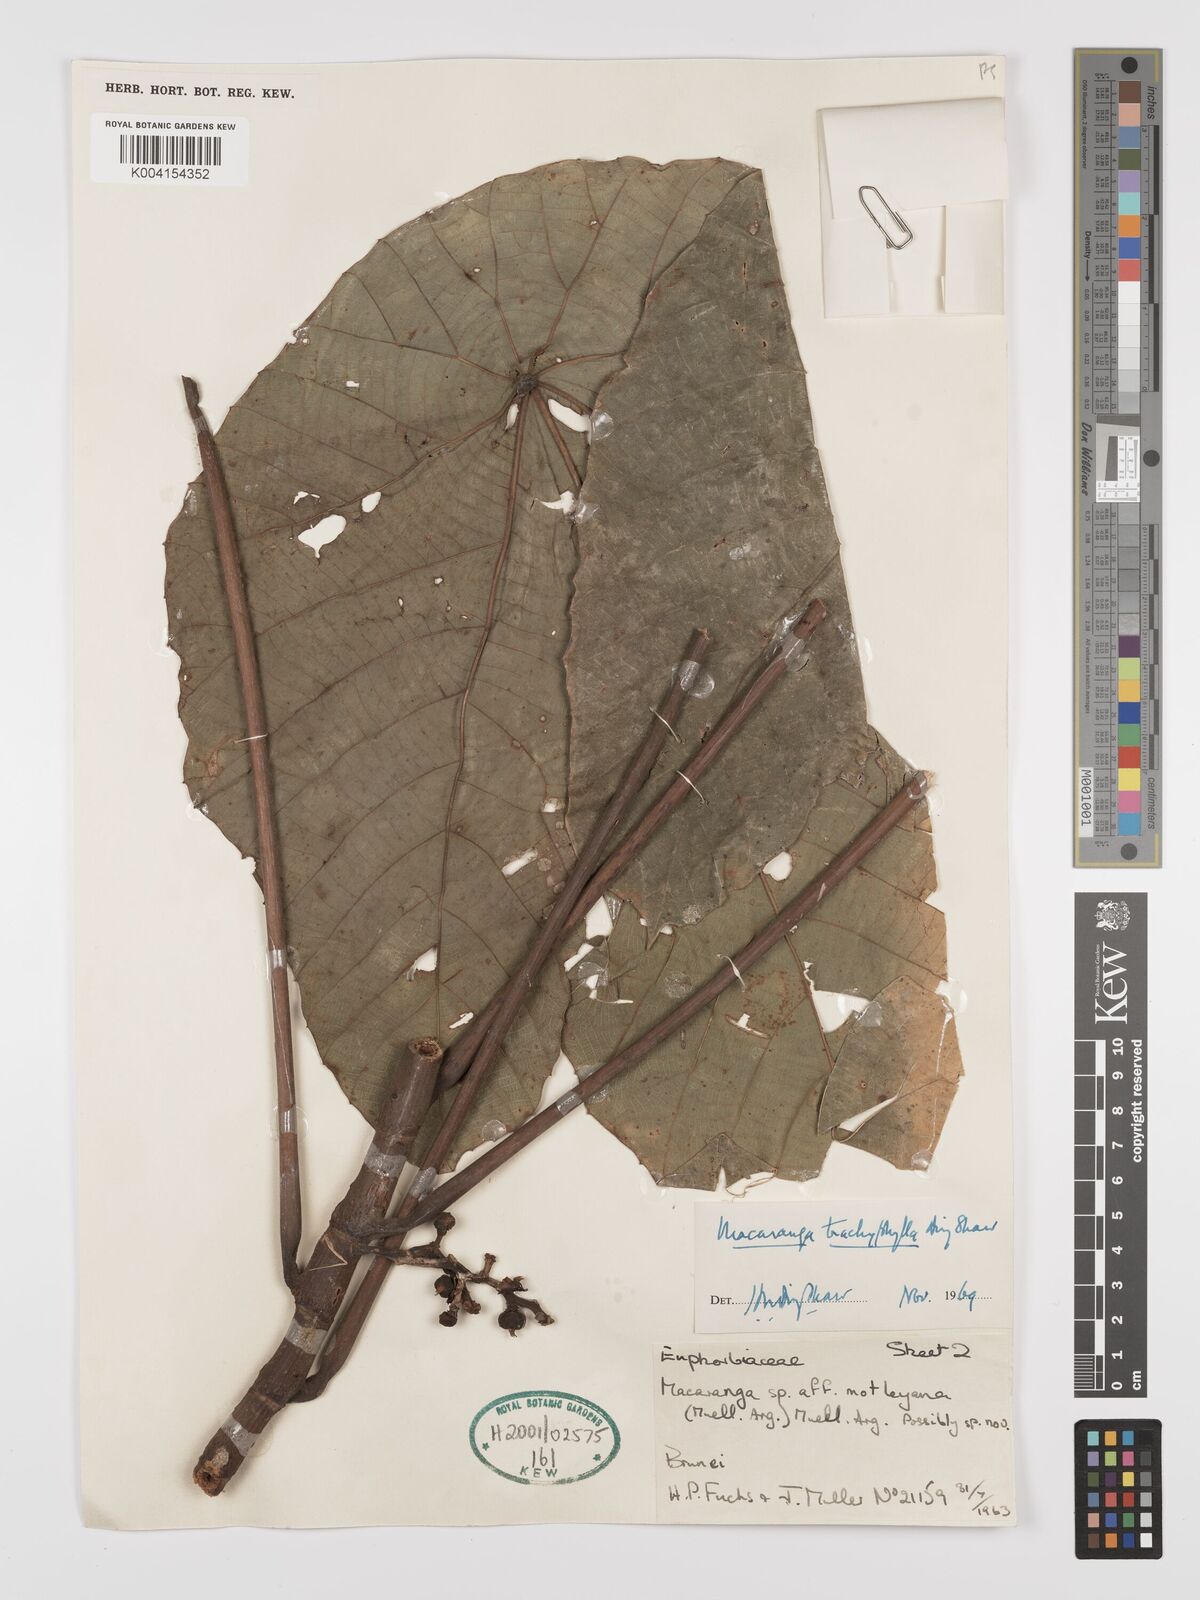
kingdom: Plantae
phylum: Tracheophyta
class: Magnoliopsida
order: Malpighiales
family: Euphorbiaceae
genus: Macaranga
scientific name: Macaranga trachyphylla
